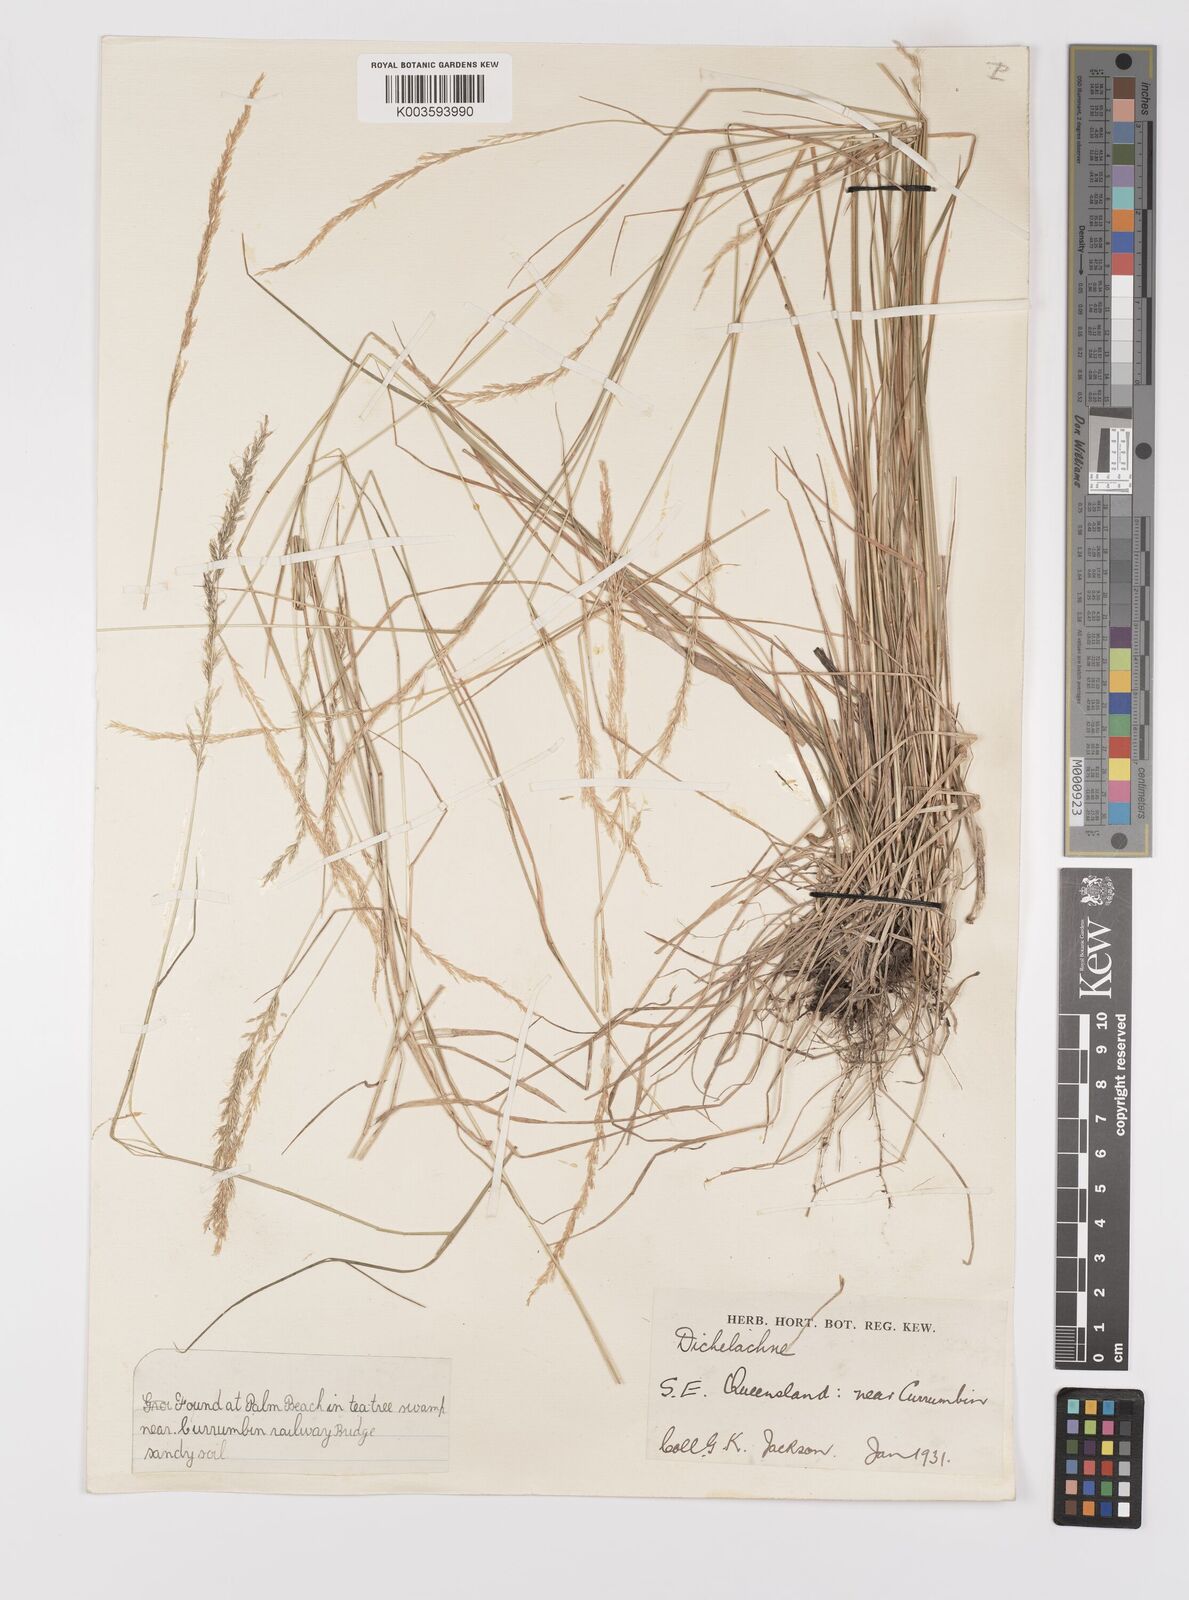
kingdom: Plantae
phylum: Tracheophyta
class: Liliopsida
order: Poales
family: Poaceae
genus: Dichelachne
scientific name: Dichelachne micrantha
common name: Plumegrass
